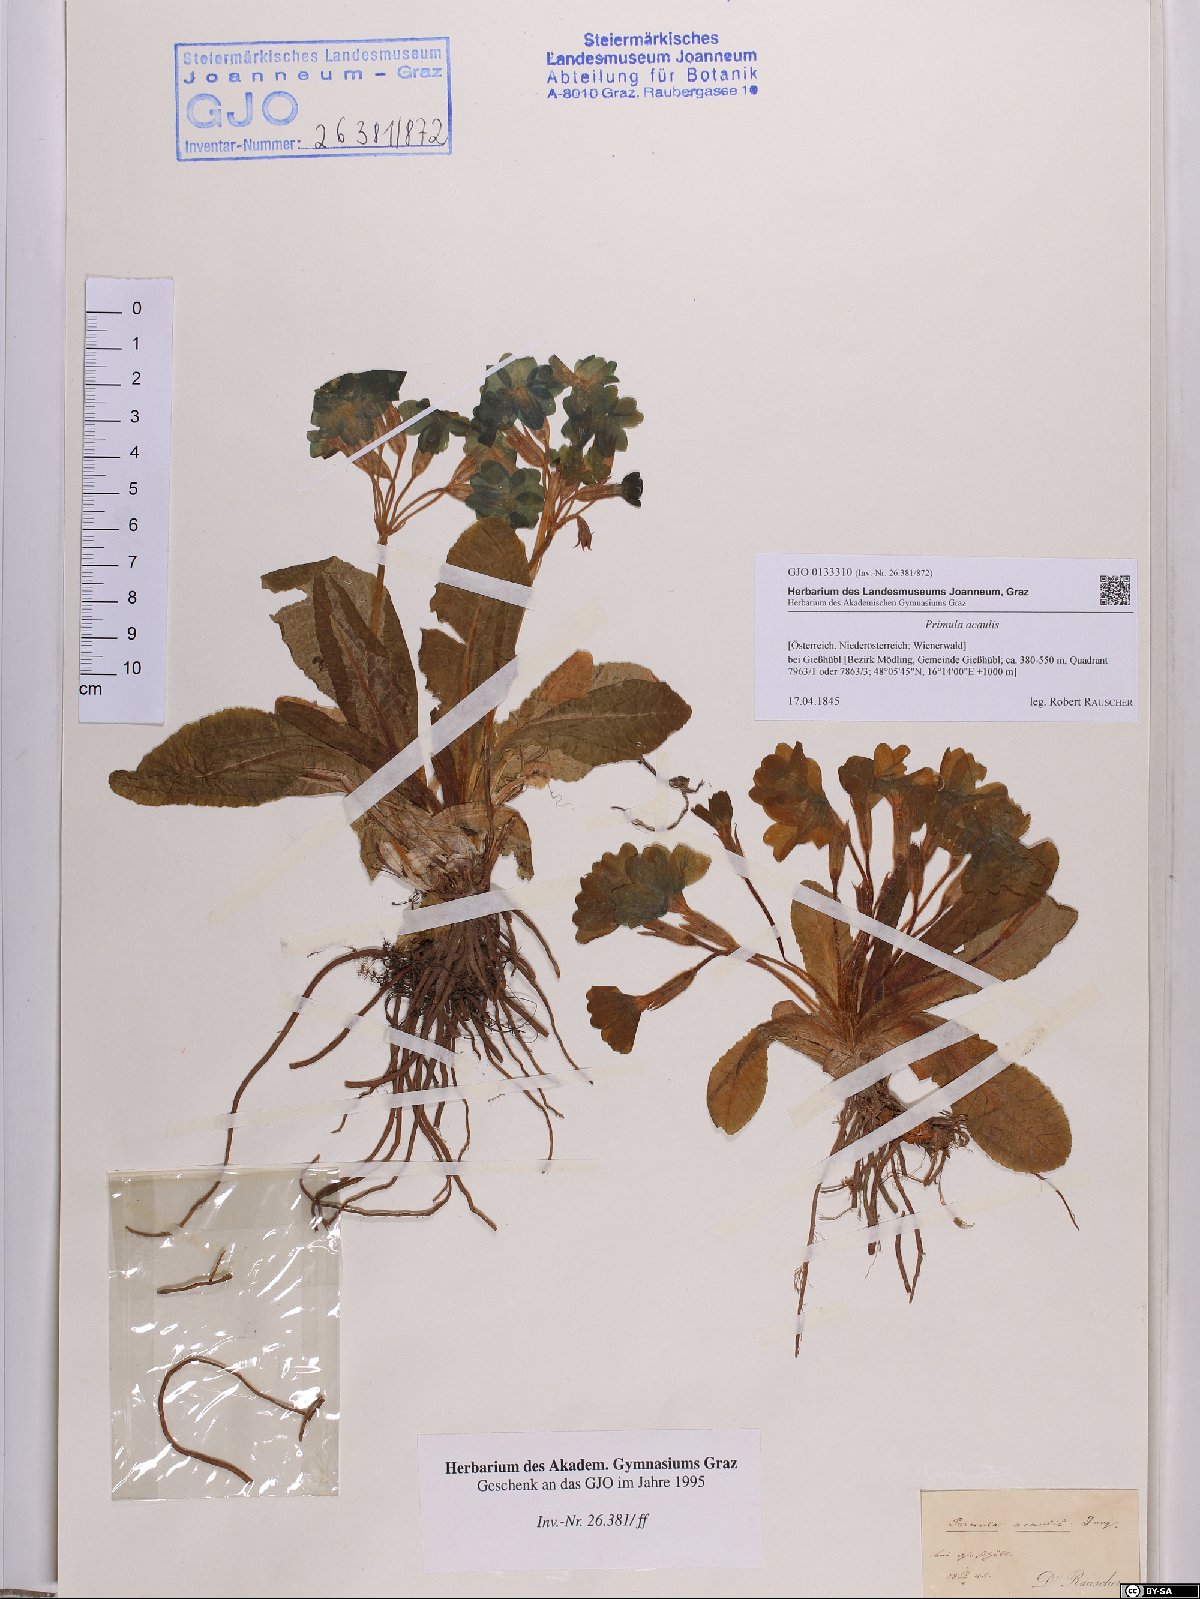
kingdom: Plantae
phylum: Tracheophyta
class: Magnoliopsida
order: Ericales
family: Primulaceae
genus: Primula
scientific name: Primula vulgaris
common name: Primrose
